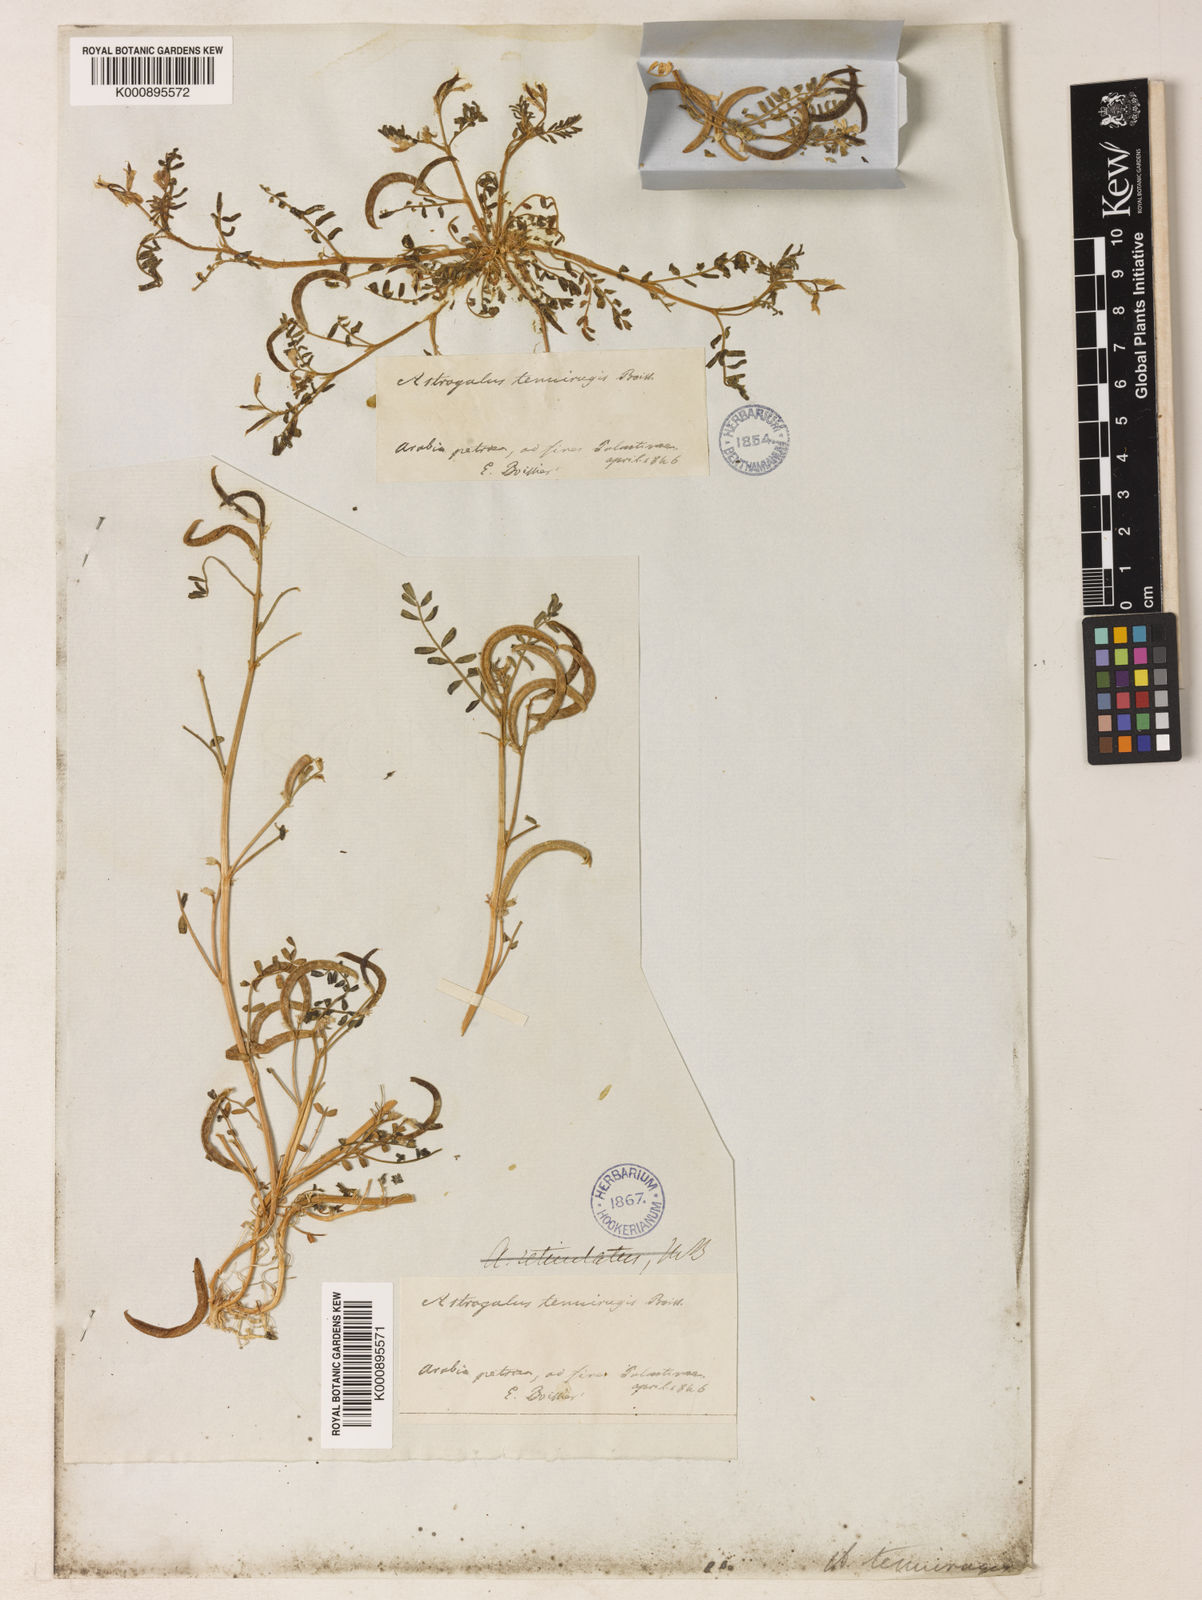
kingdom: Plantae
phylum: Tracheophyta
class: Magnoliopsida
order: Fabales
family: Fabaceae
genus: Astragalus
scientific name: Astragalus crenatus
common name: Milk vetch
